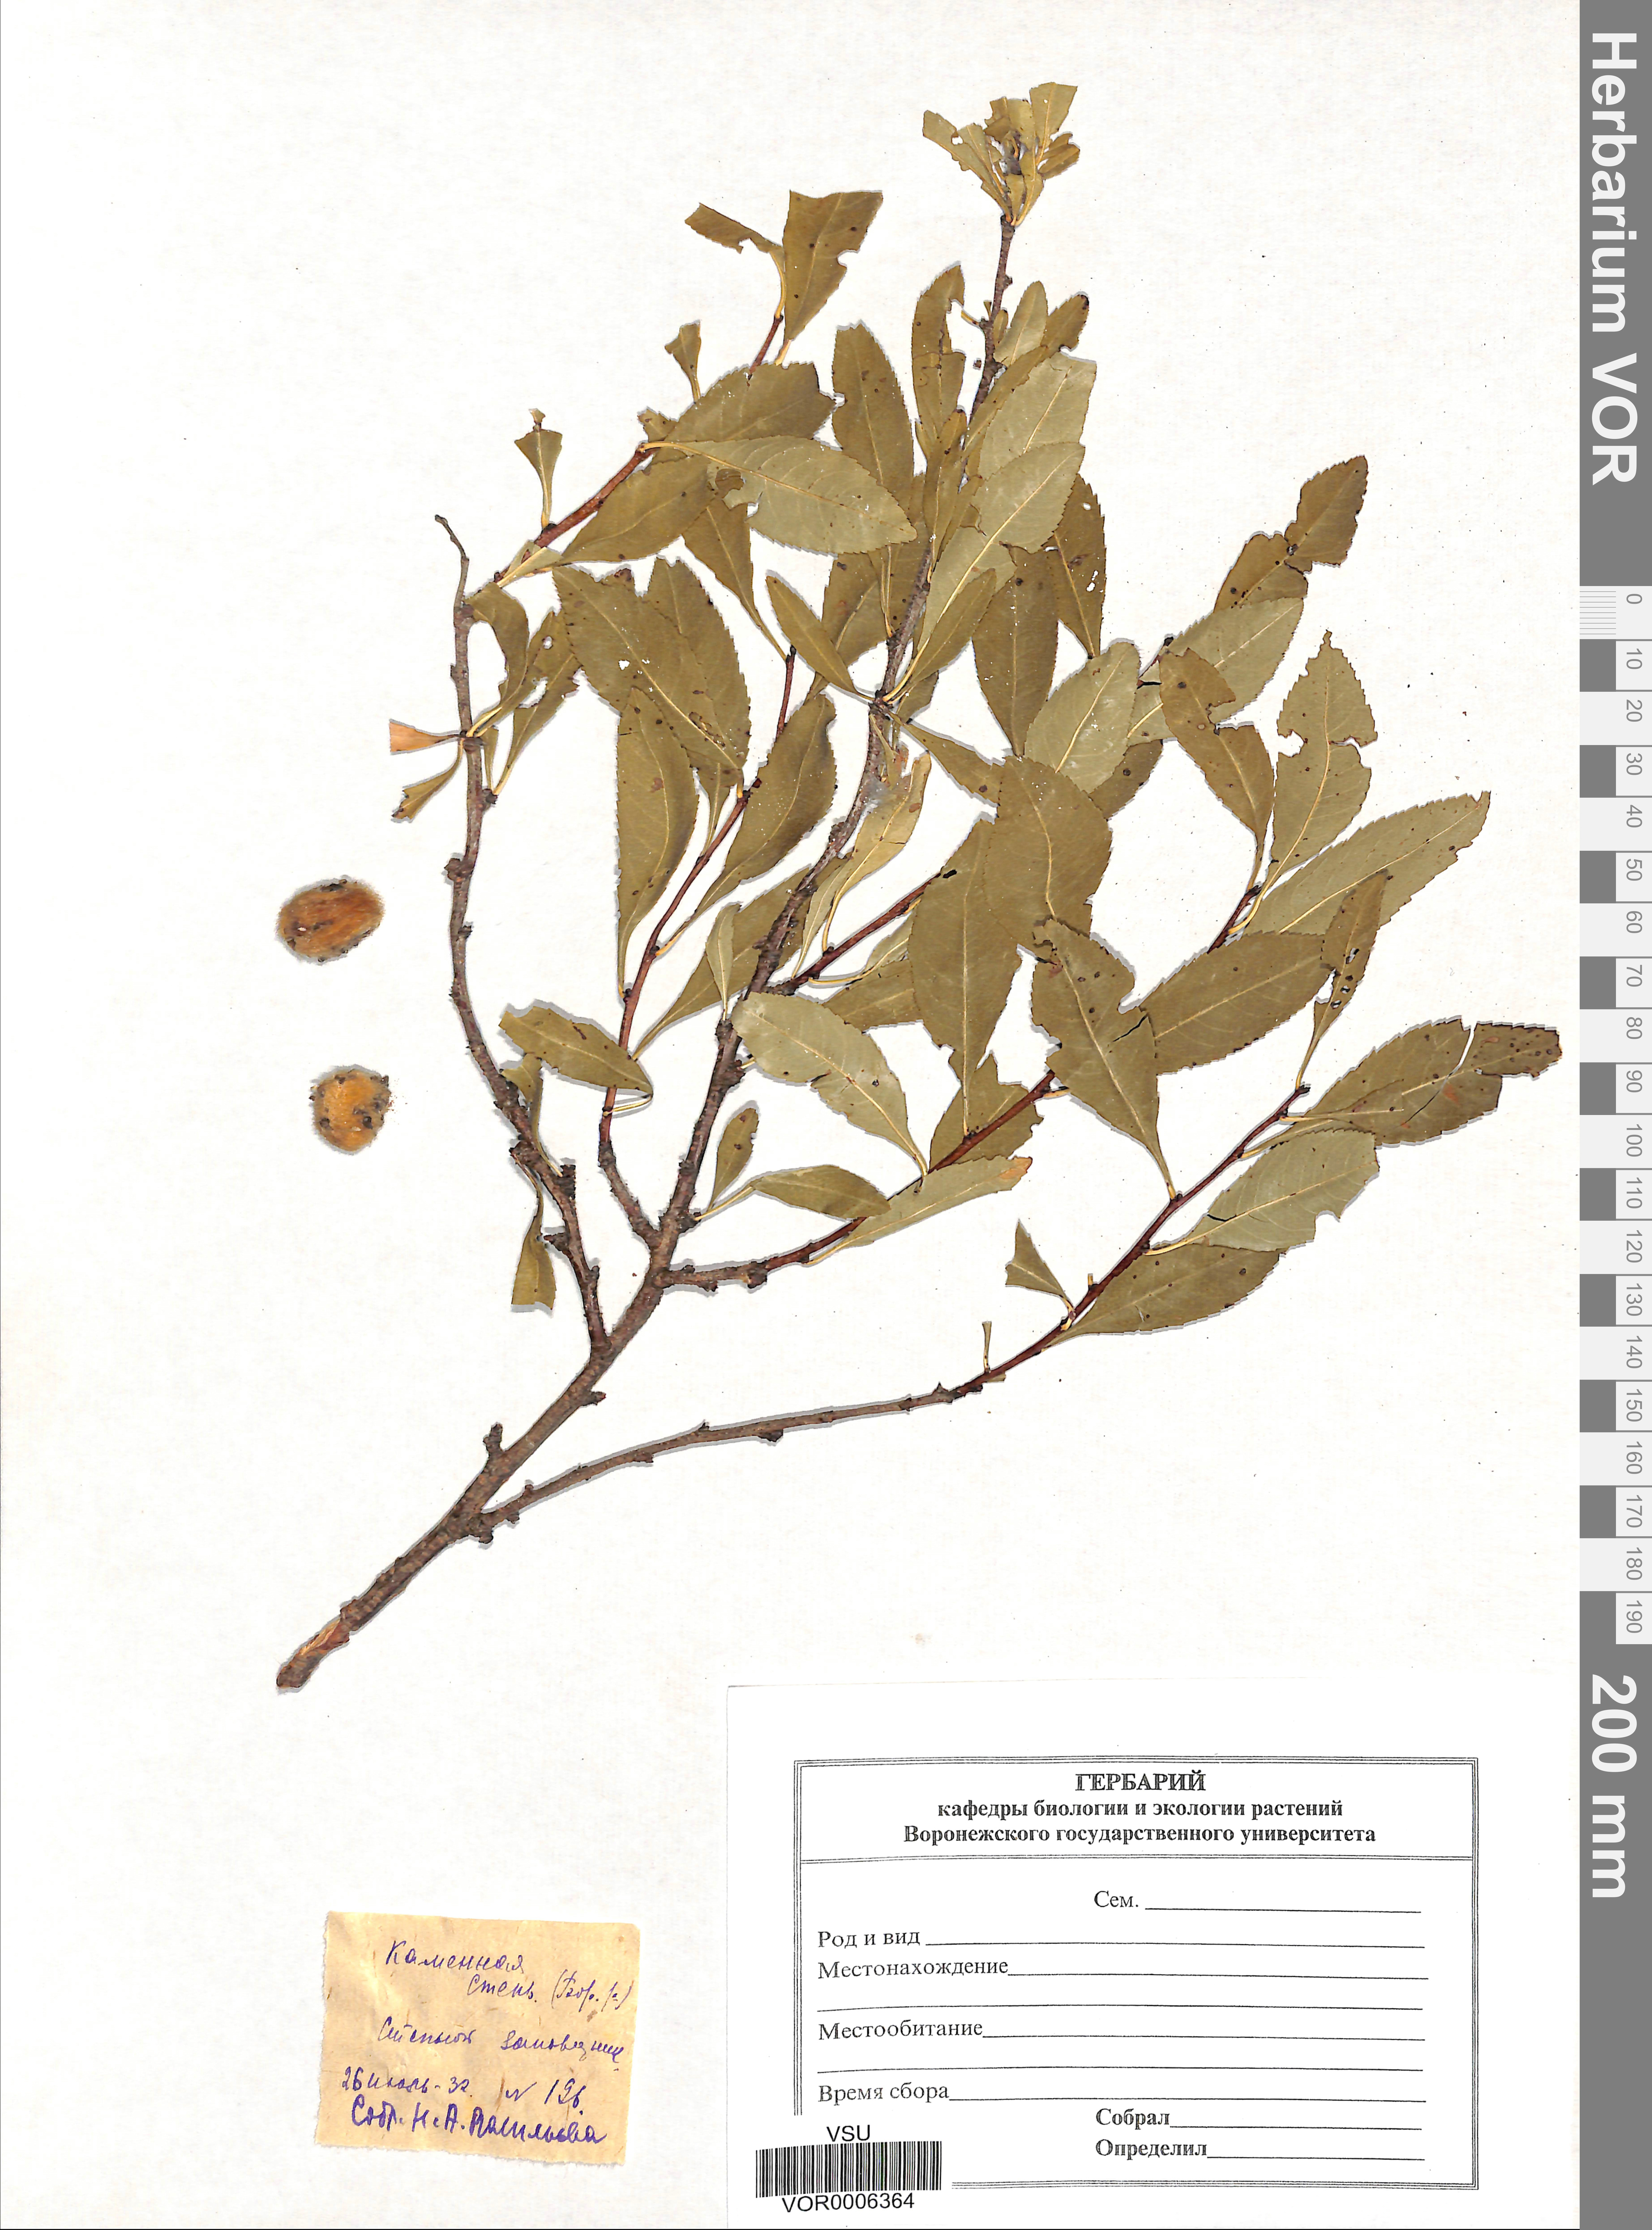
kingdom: Plantae
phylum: Tracheophyta
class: Magnoliopsida
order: Rosales
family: Rosaceae
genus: Prunus
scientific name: Prunus tenella
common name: Dwarf russian almond
